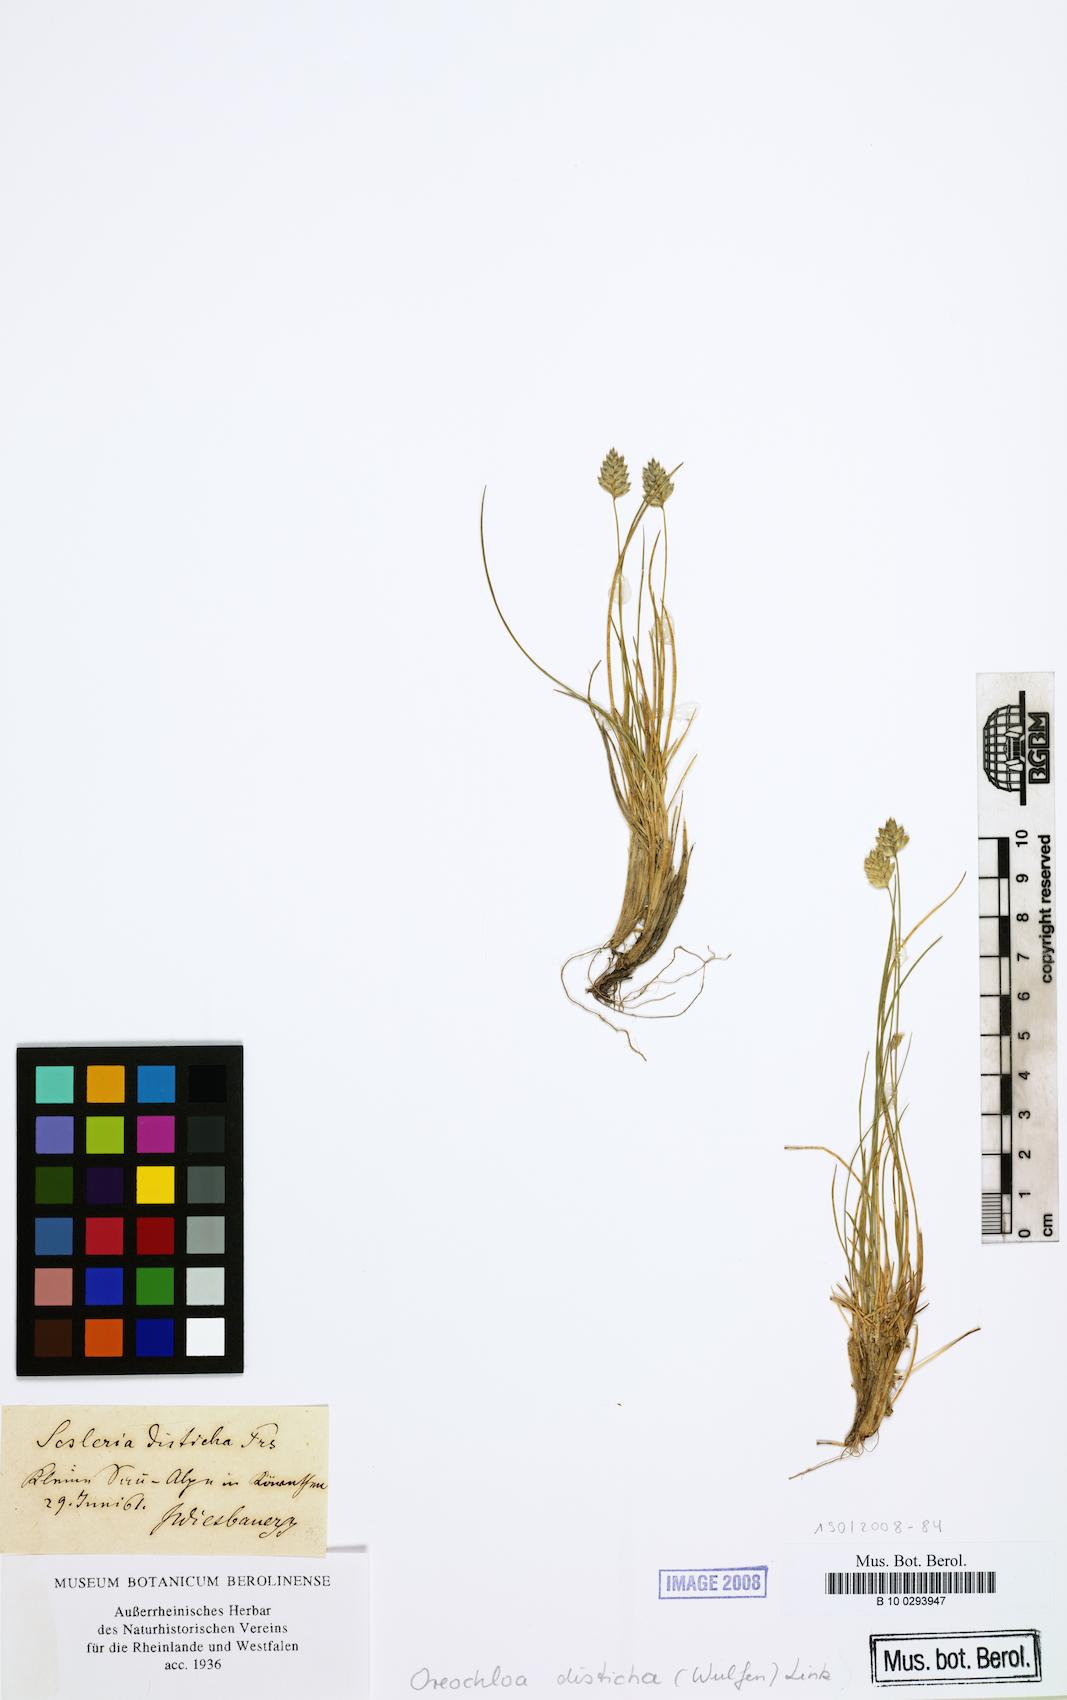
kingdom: Plantae
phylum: Tracheophyta
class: Liliopsida
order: Poales
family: Poaceae
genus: Oreochloa
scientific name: Oreochloa disticha
